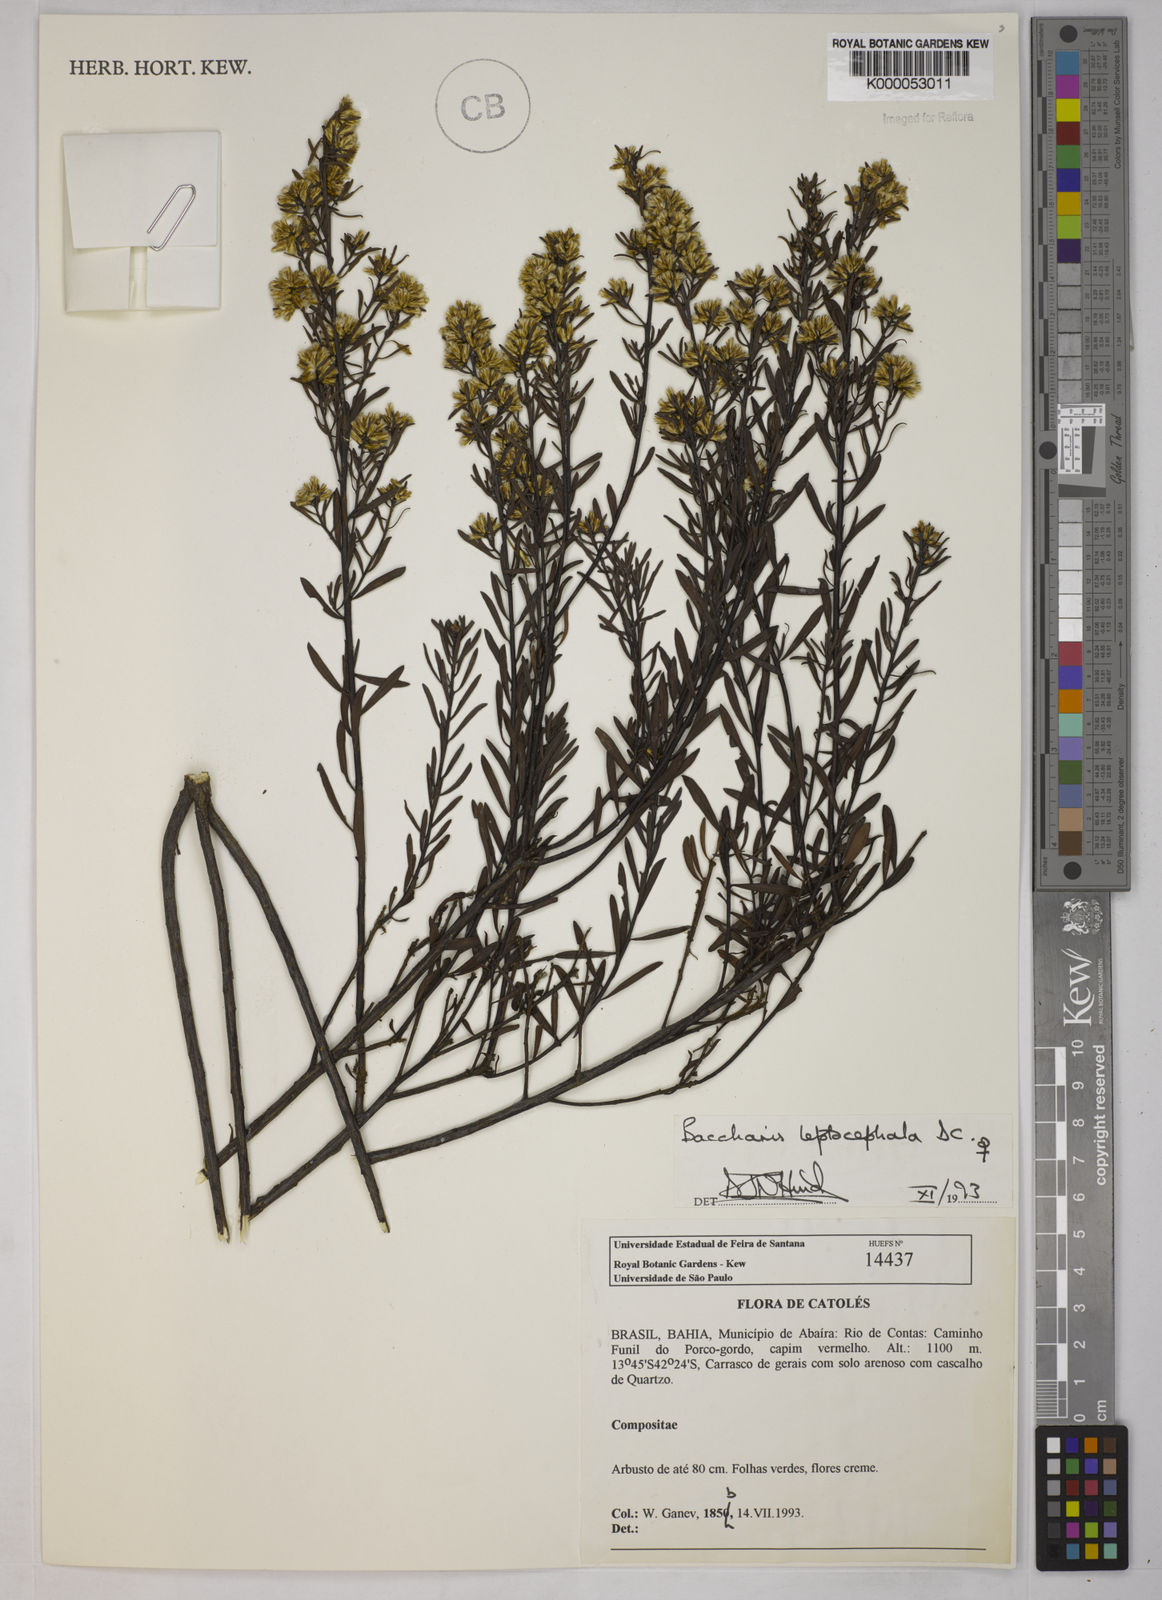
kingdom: Plantae
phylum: Tracheophyta
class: Magnoliopsida
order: Asterales
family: Asteraceae
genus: Baccharis
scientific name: Baccharis leptocephala
